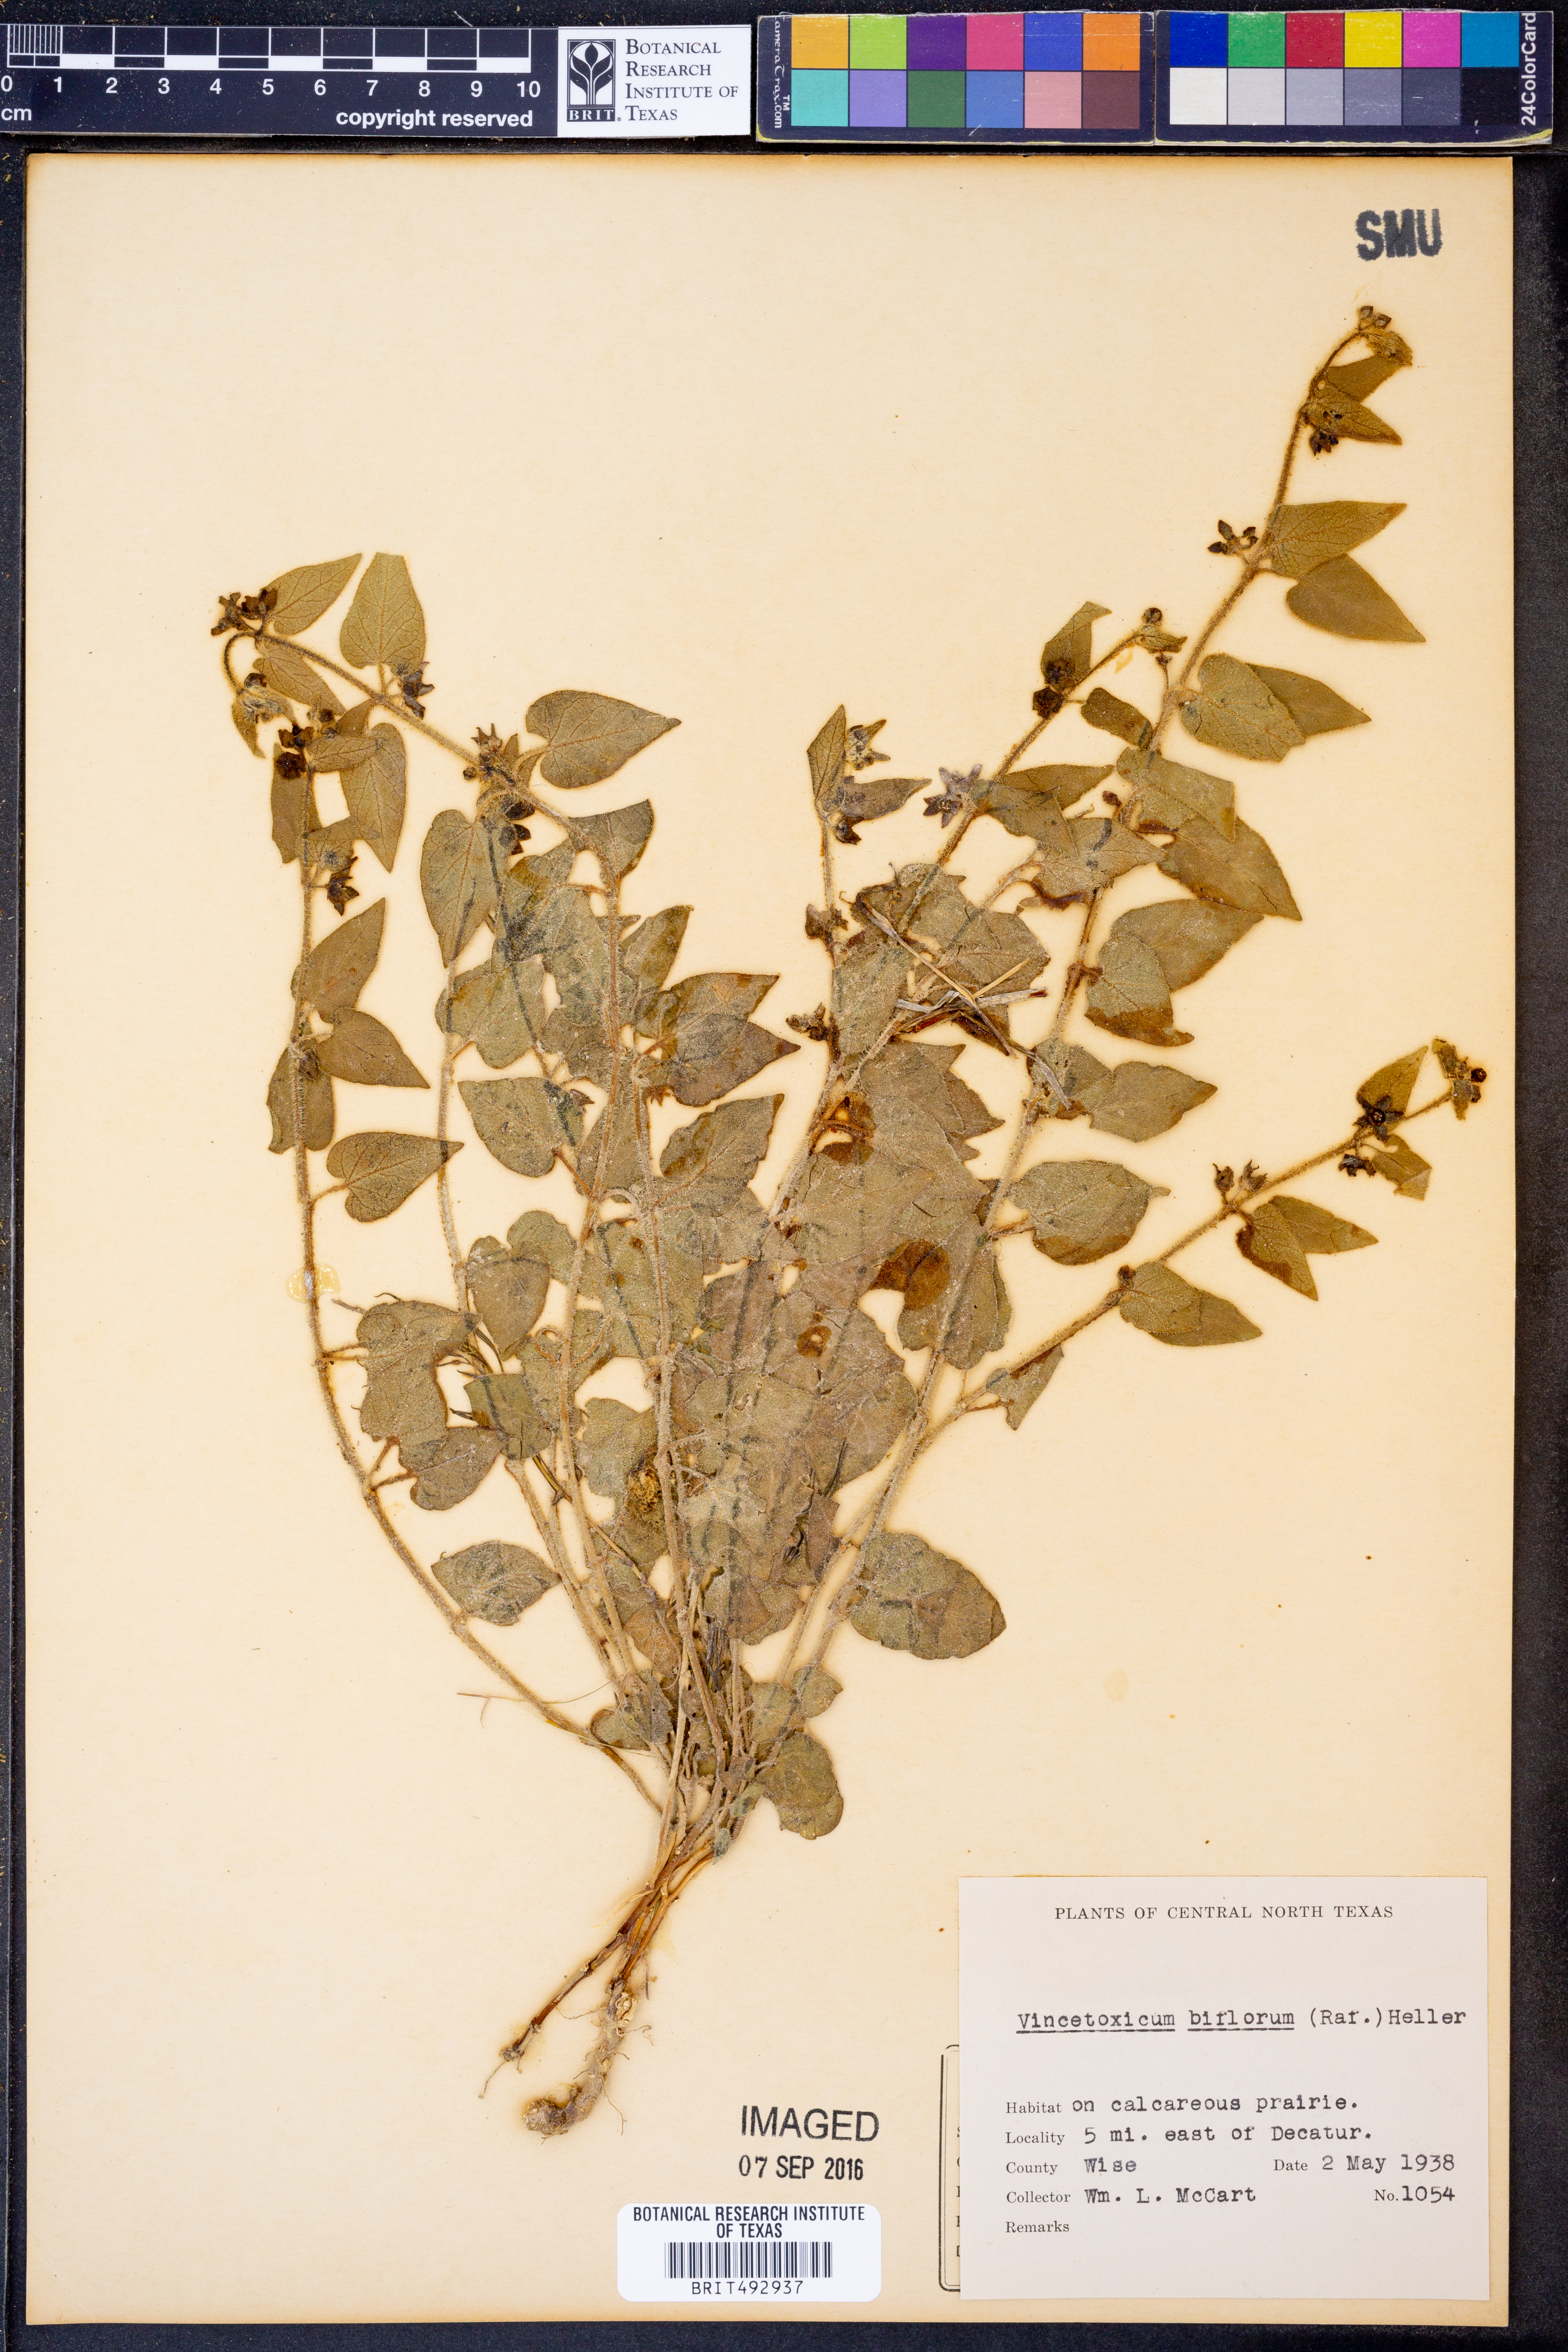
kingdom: Plantae
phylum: Tracheophyta
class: Magnoliopsida
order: Gentianales
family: Apocynaceae
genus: Chthamalia
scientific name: Chthamalia biflora
